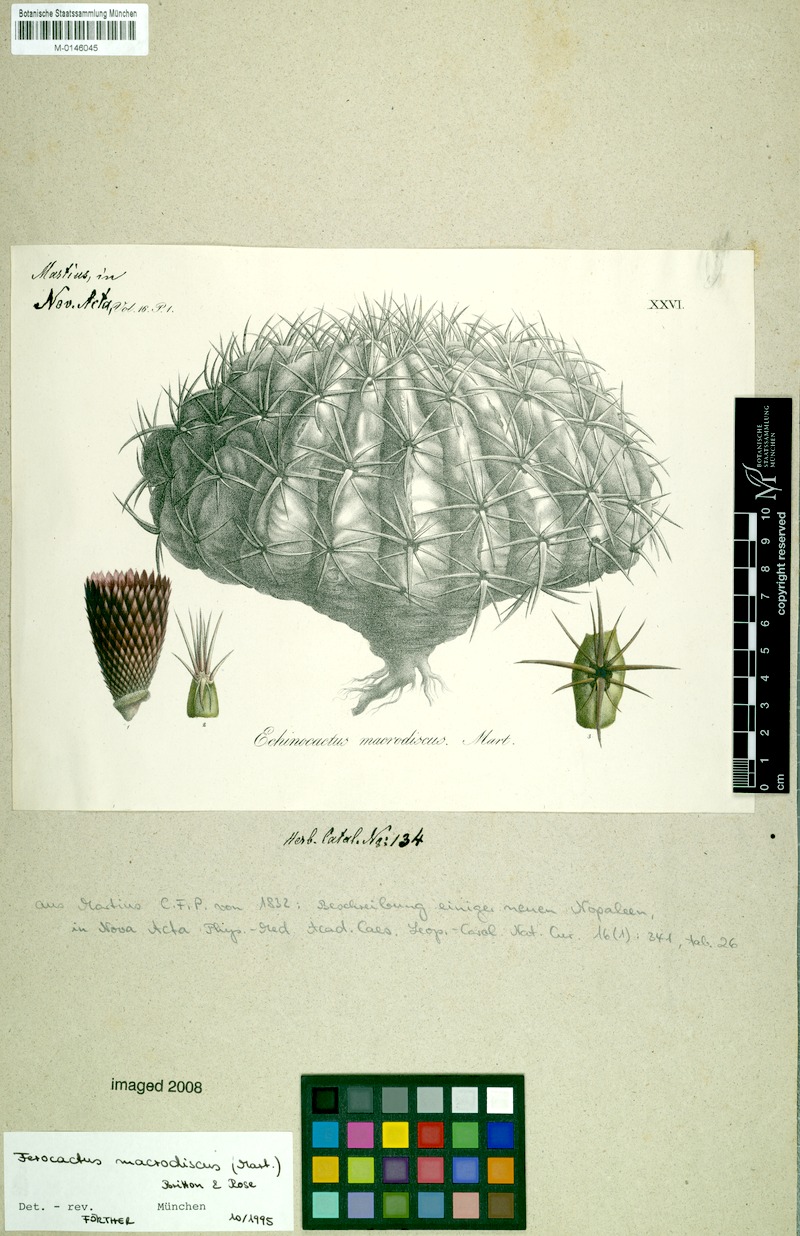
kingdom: Plantae
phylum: Tracheophyta
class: Magnoliopsida
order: Caryophyllales
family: Cactaceae
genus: Ferocactus
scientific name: Ferocactus macrodiscus
